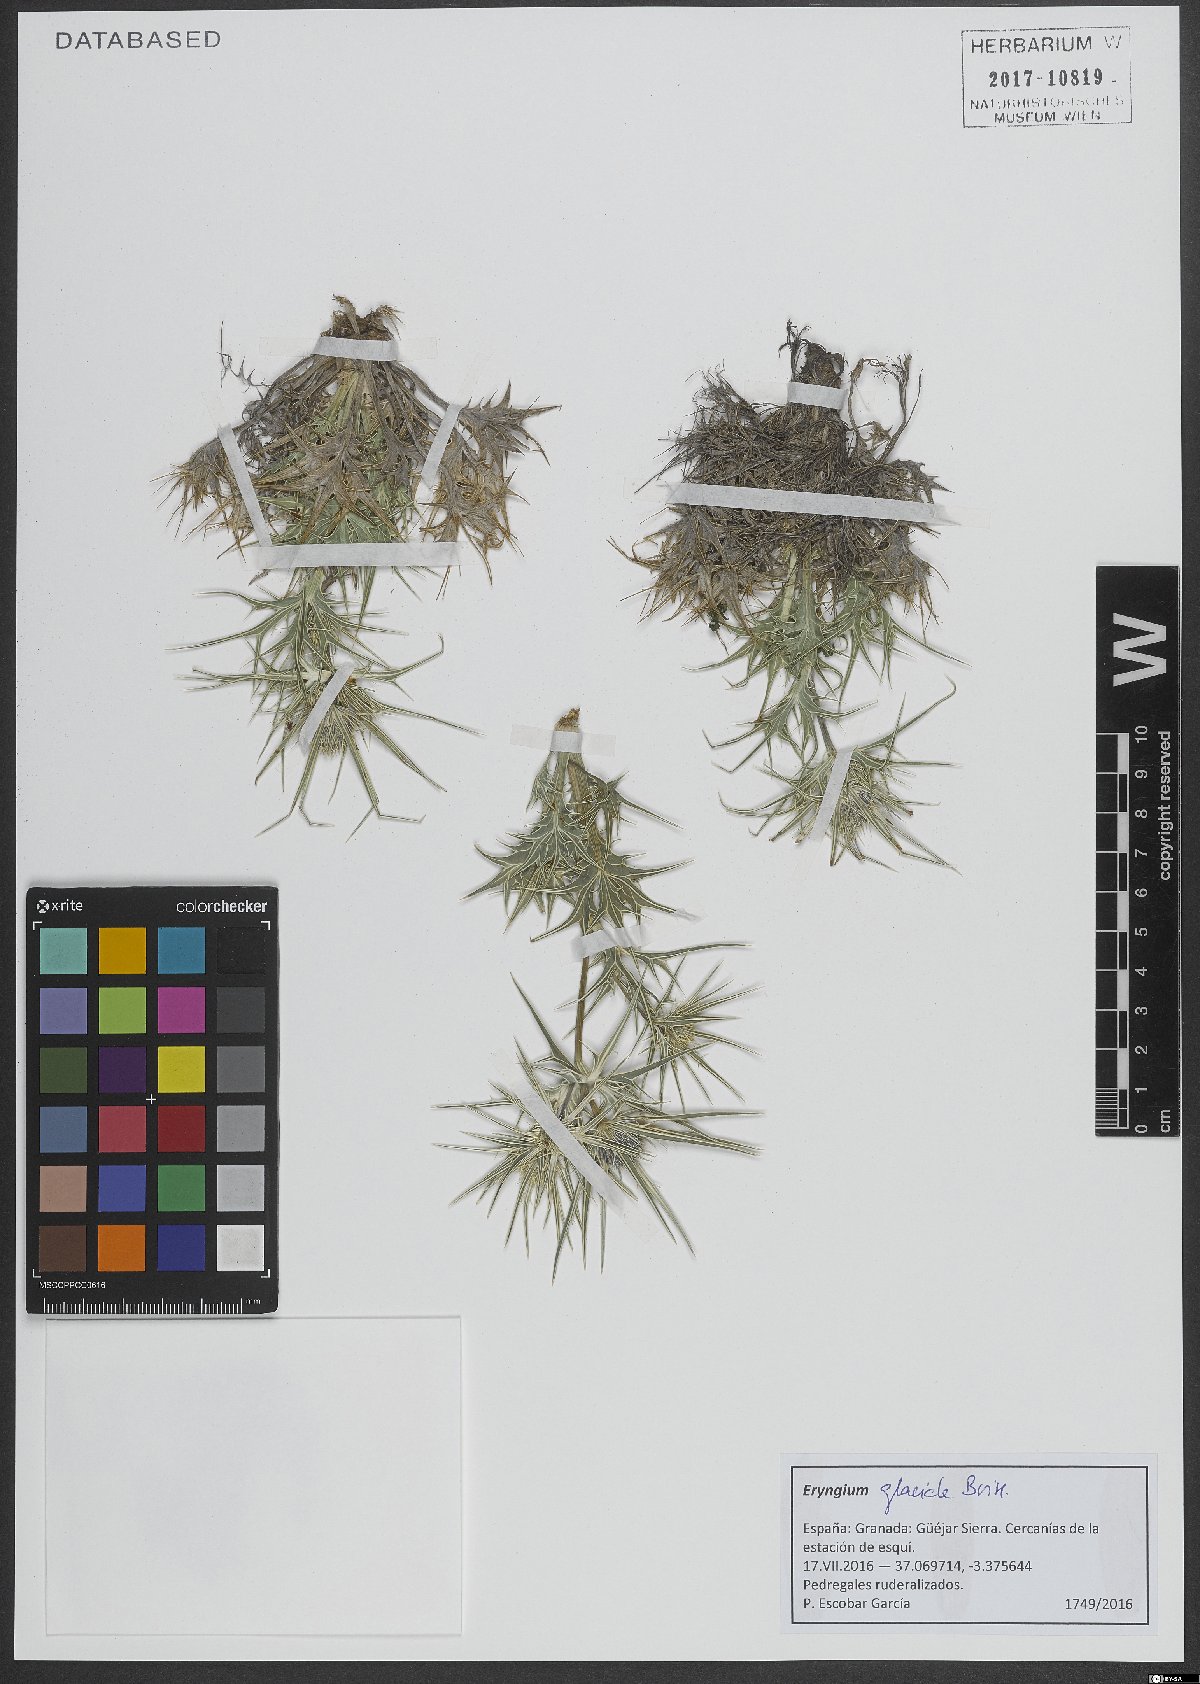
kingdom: Plantae
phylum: Tracheophyta
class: Magnoliopsida
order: Apiales
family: Apiaceae
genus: Eryngium
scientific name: Eryngium glaciale
